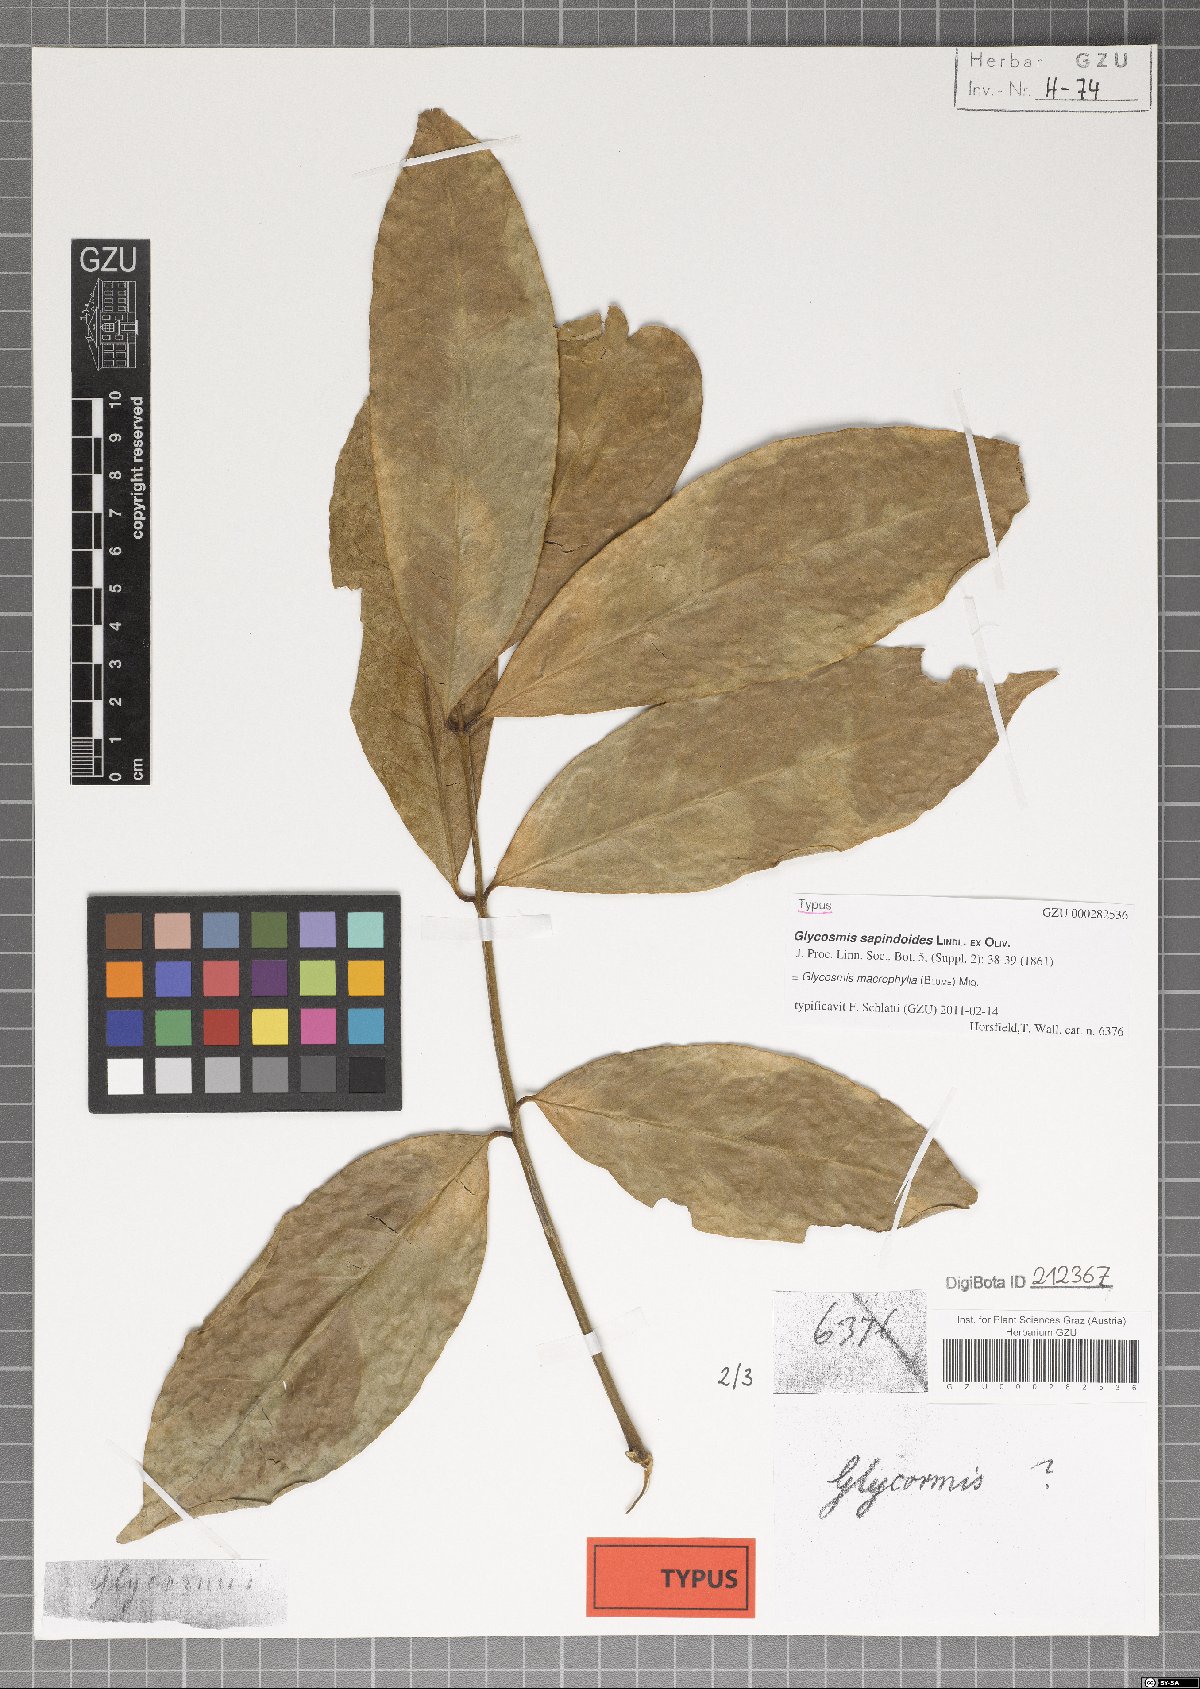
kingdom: Plantae
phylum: Tracheophyta
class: Magnoliopsida
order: Sapindales
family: Rutaceae
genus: Glycosmis
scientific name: Glycosmis macrophylla
